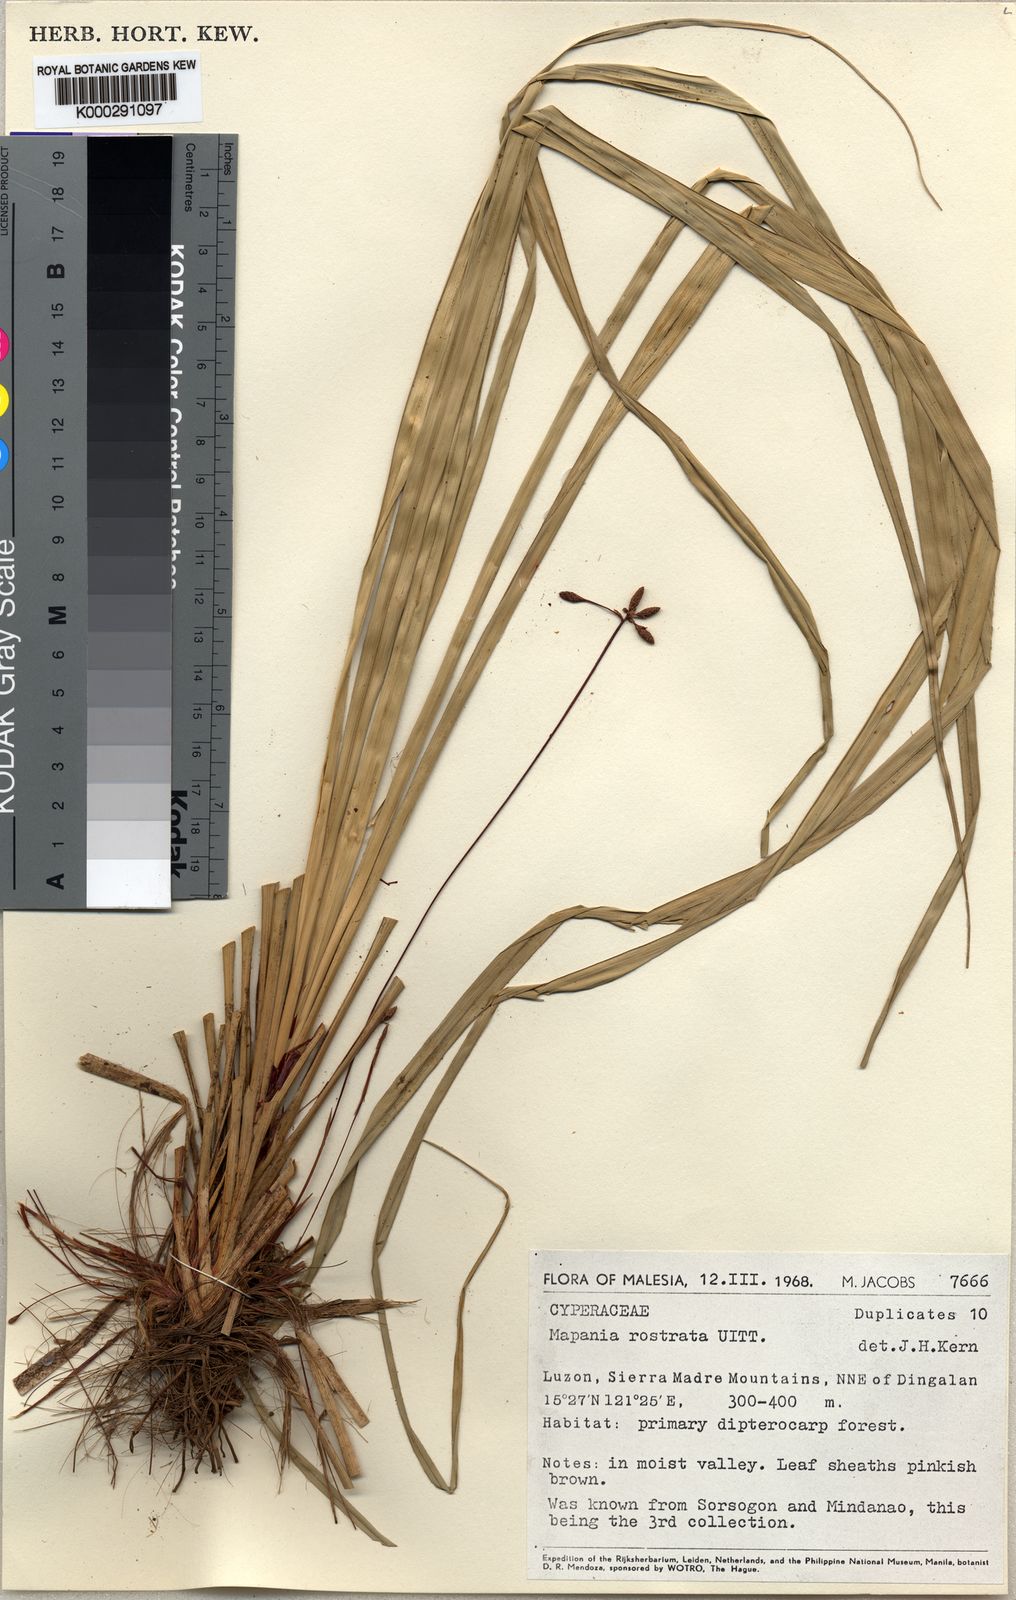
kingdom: Plantae
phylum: Tracheophyta
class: Liliopsida
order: Poales
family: Cyperaceae
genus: Paramapania
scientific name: Paramapania rostrata
